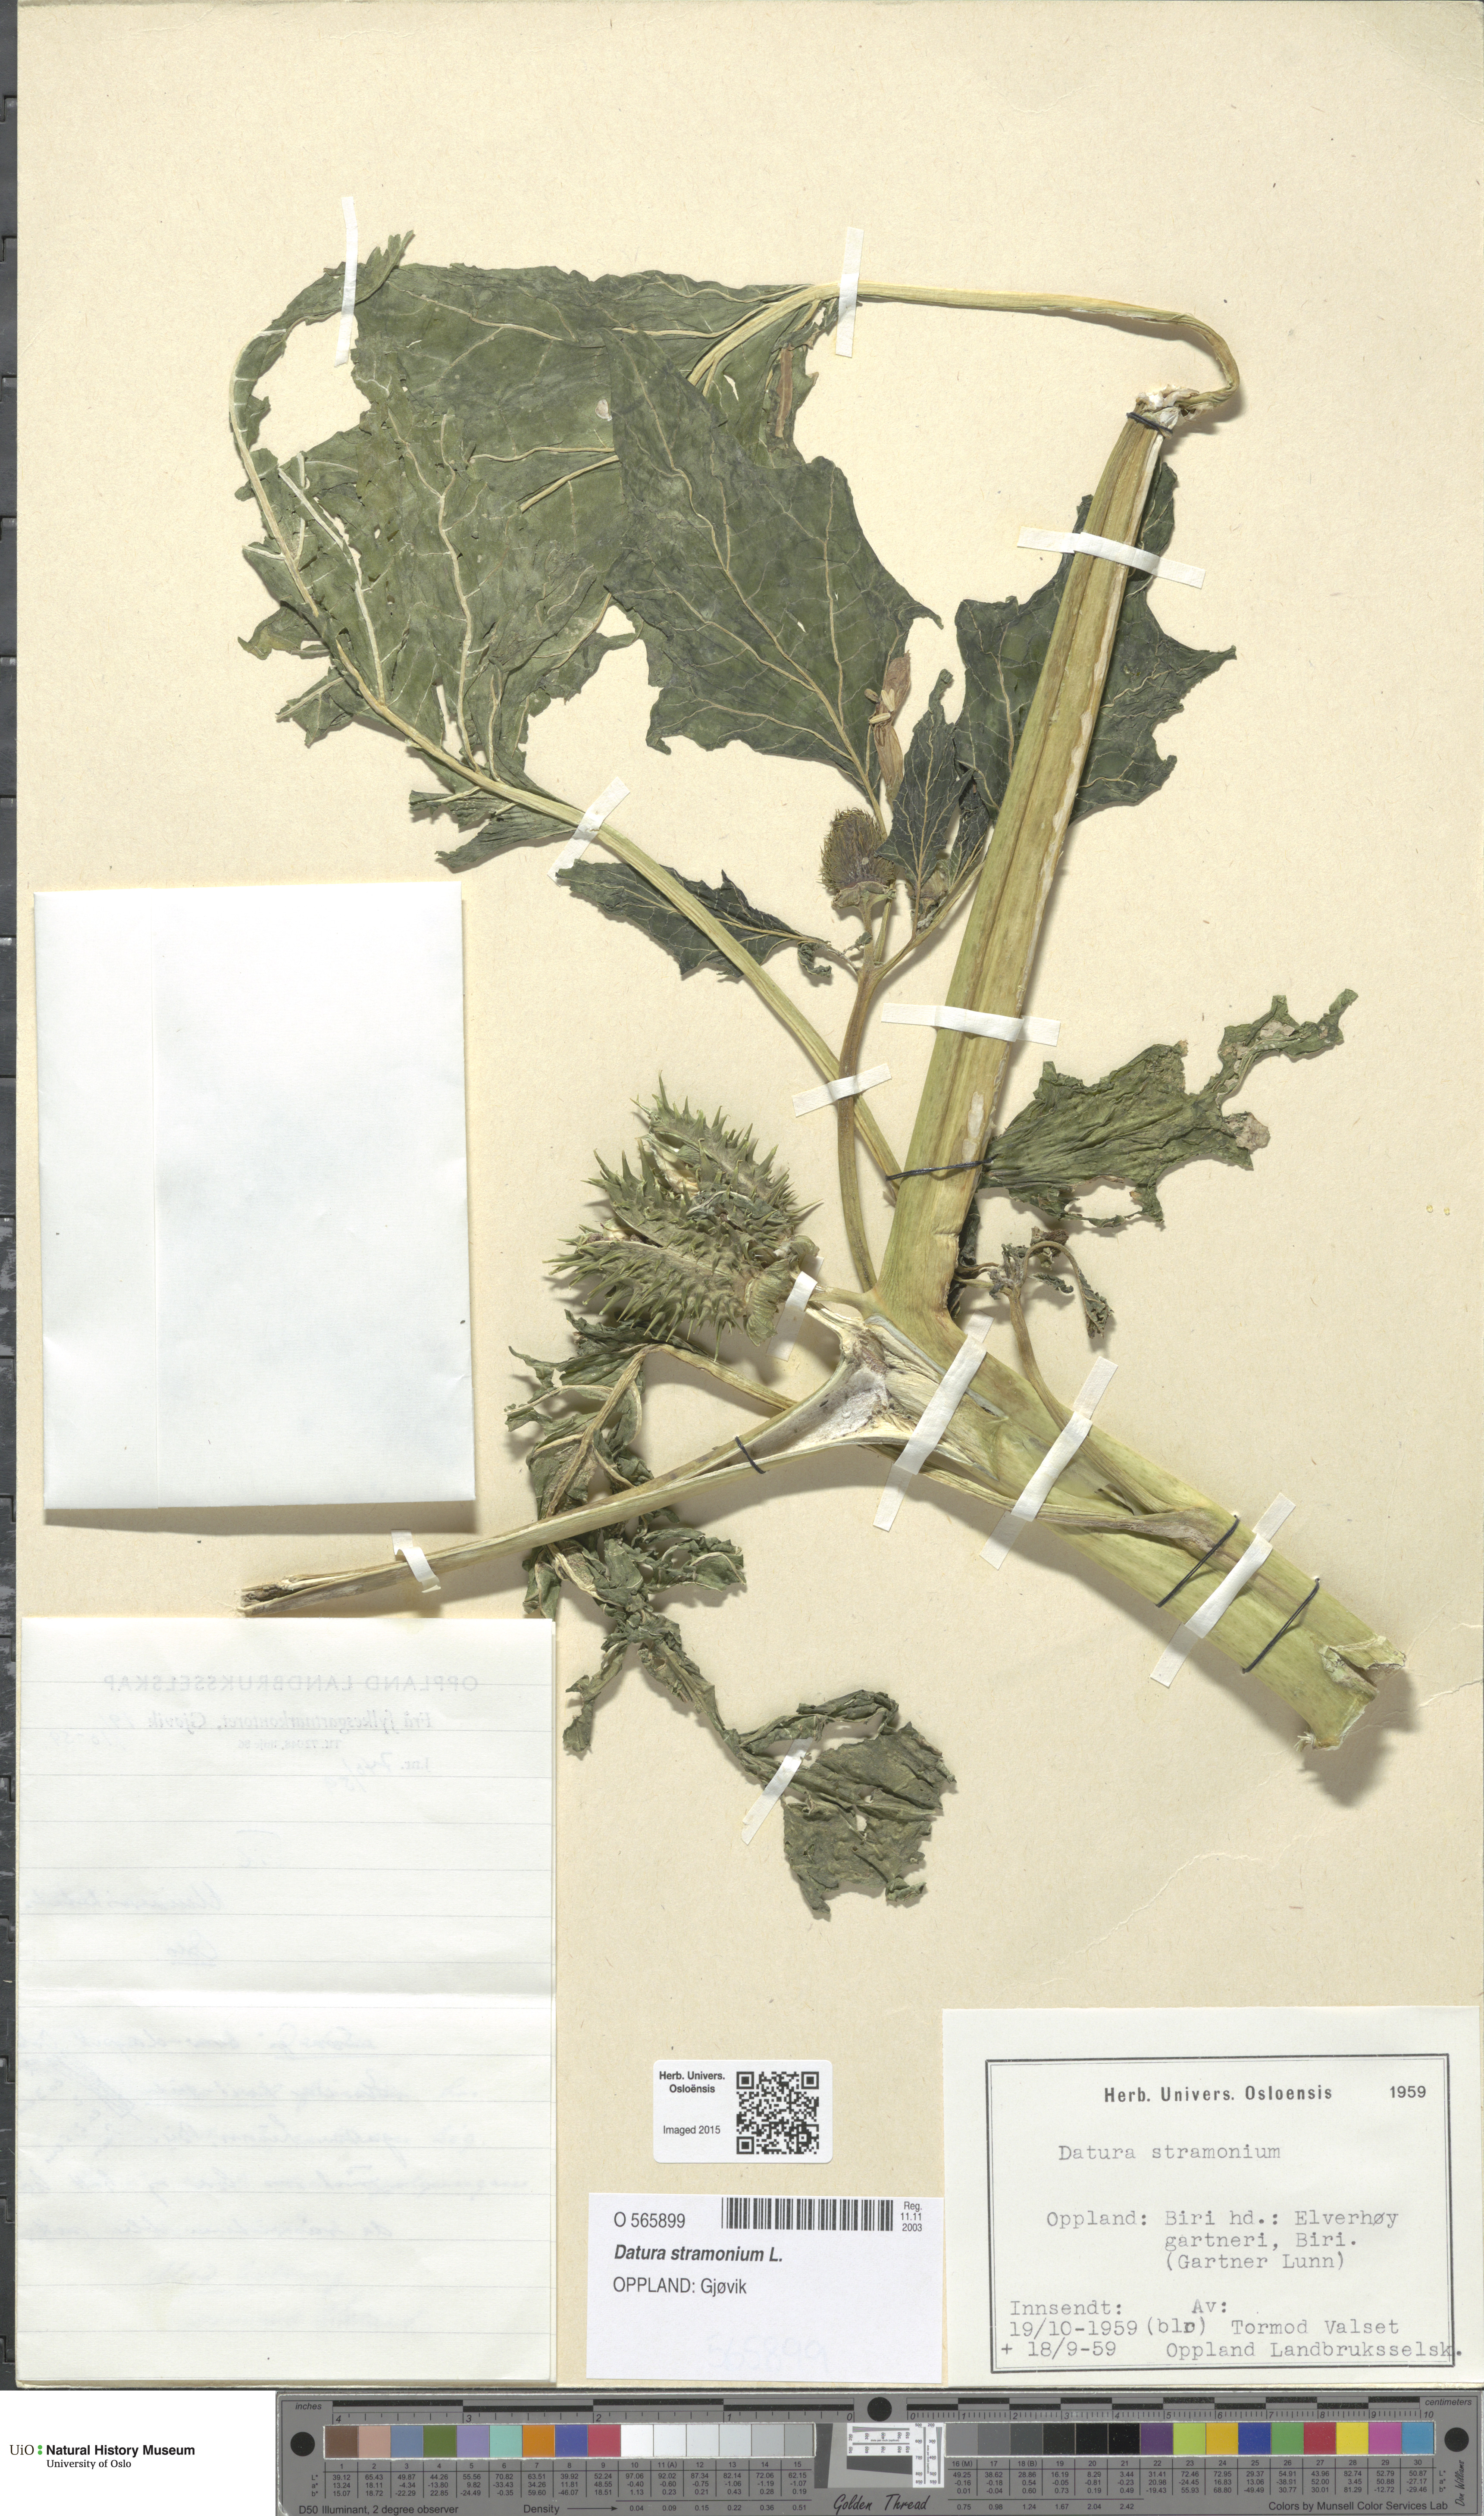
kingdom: Plantae
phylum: Tracheophyta
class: Magnoliopsida
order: Solanales
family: Solanaceae
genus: Datura
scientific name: Datura stramonium
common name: Thorn-apple
